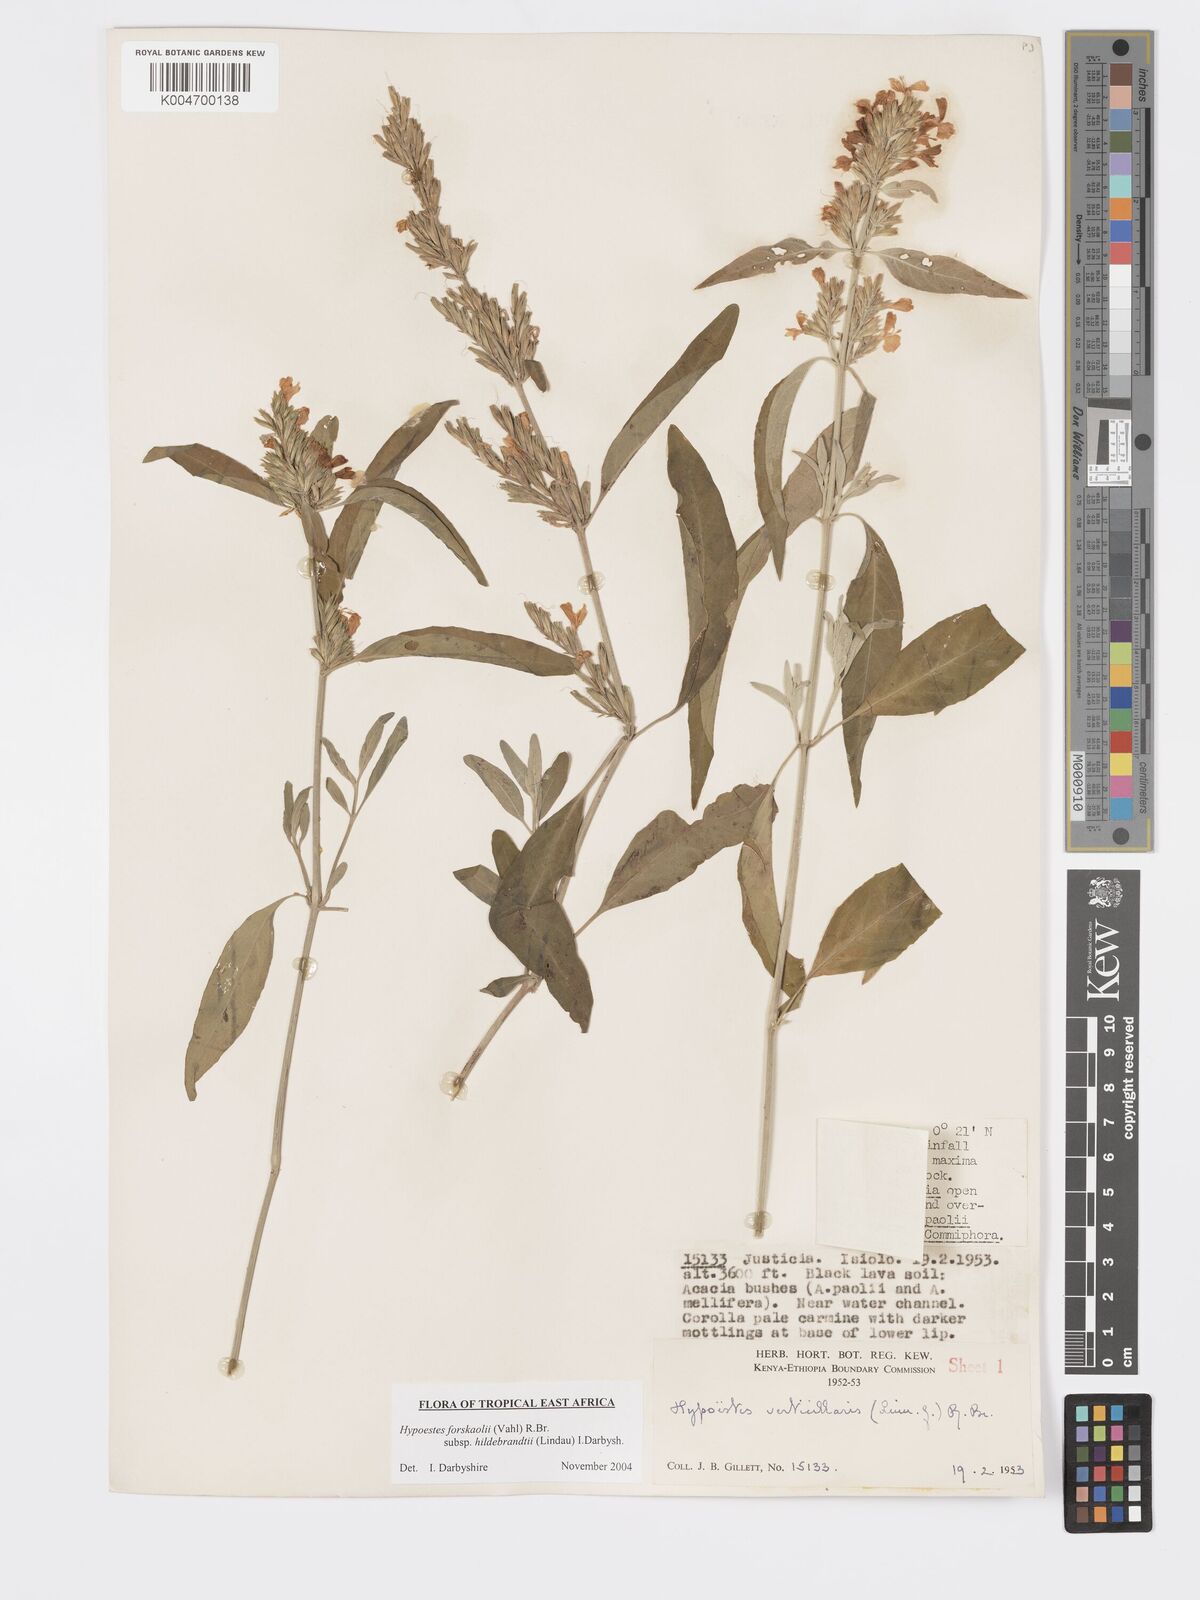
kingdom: Plantae
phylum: Tracheophyta
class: Magnoliopsida
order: Lamiales
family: Acanthaceae
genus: Hypoestes
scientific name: Hypoestes forskaolii
